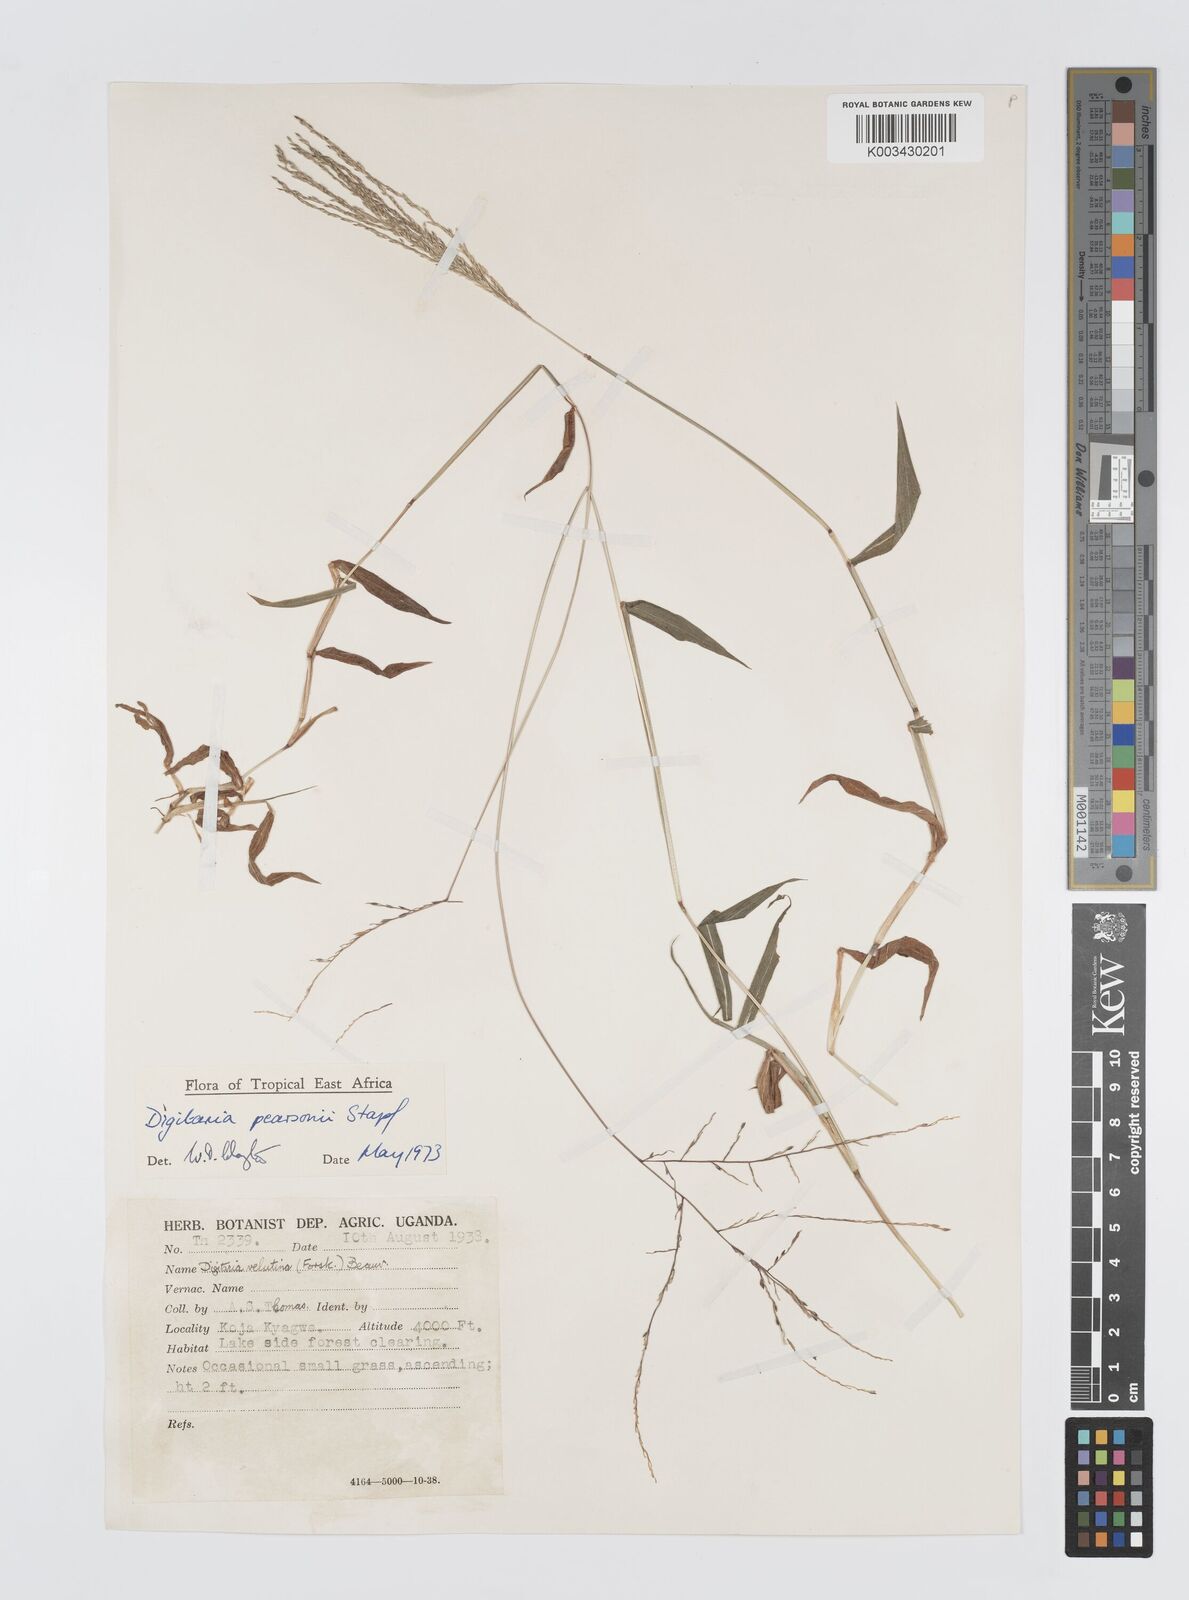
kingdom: Plantae
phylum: Tracheophyta
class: Liliopsida
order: Poales
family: Poaceae
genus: Digitaria
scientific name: Digitaria pearsonii
